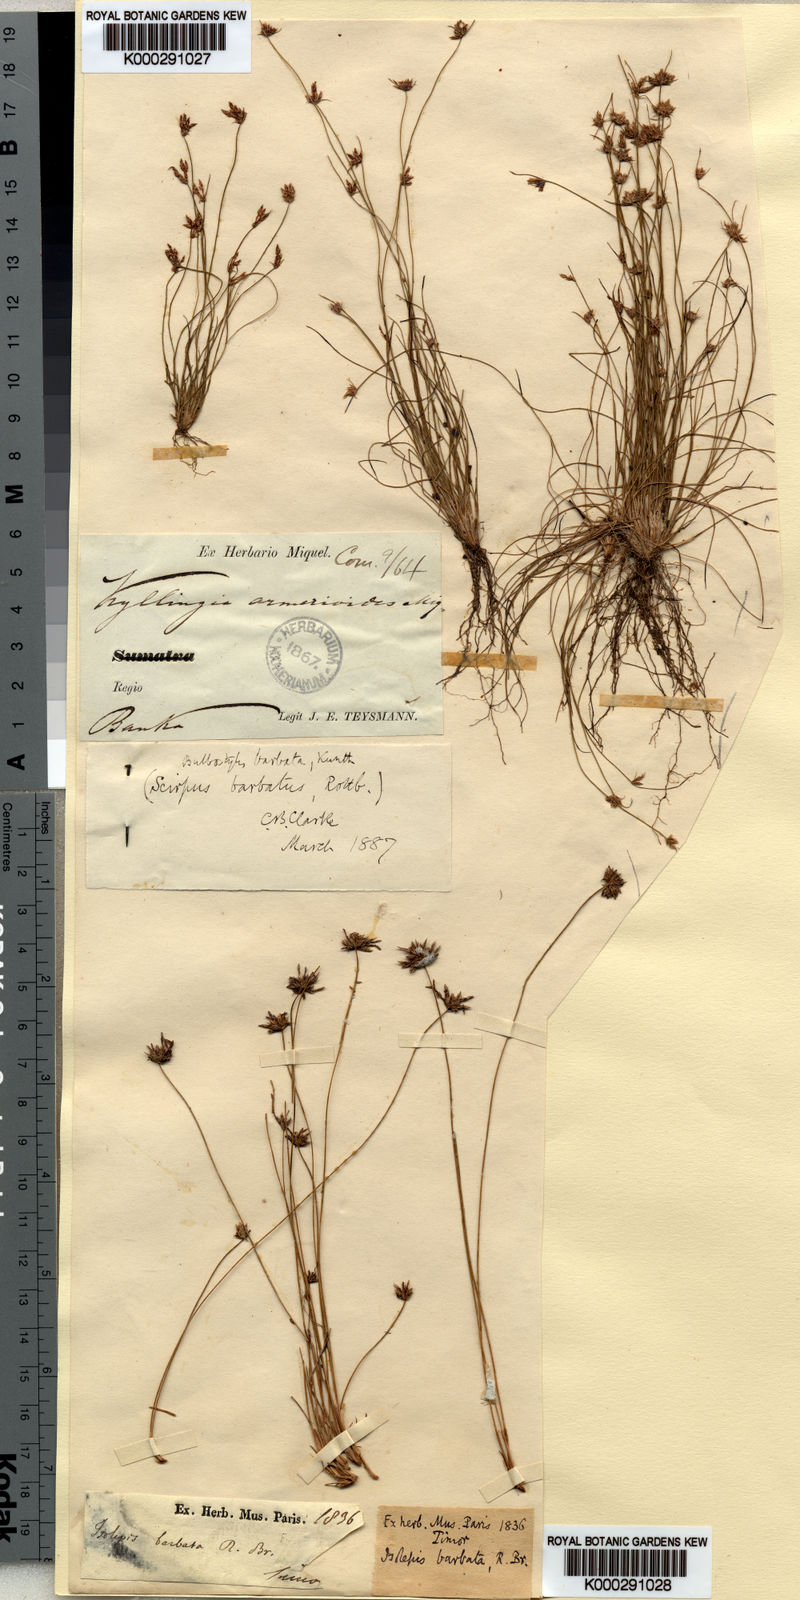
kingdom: Plantae
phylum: Tracheophyta
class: Liliopsida
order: Poales
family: Cyperaceae
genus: Bulbostylis
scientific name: Bulbostylis barbata
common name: Watergrass
